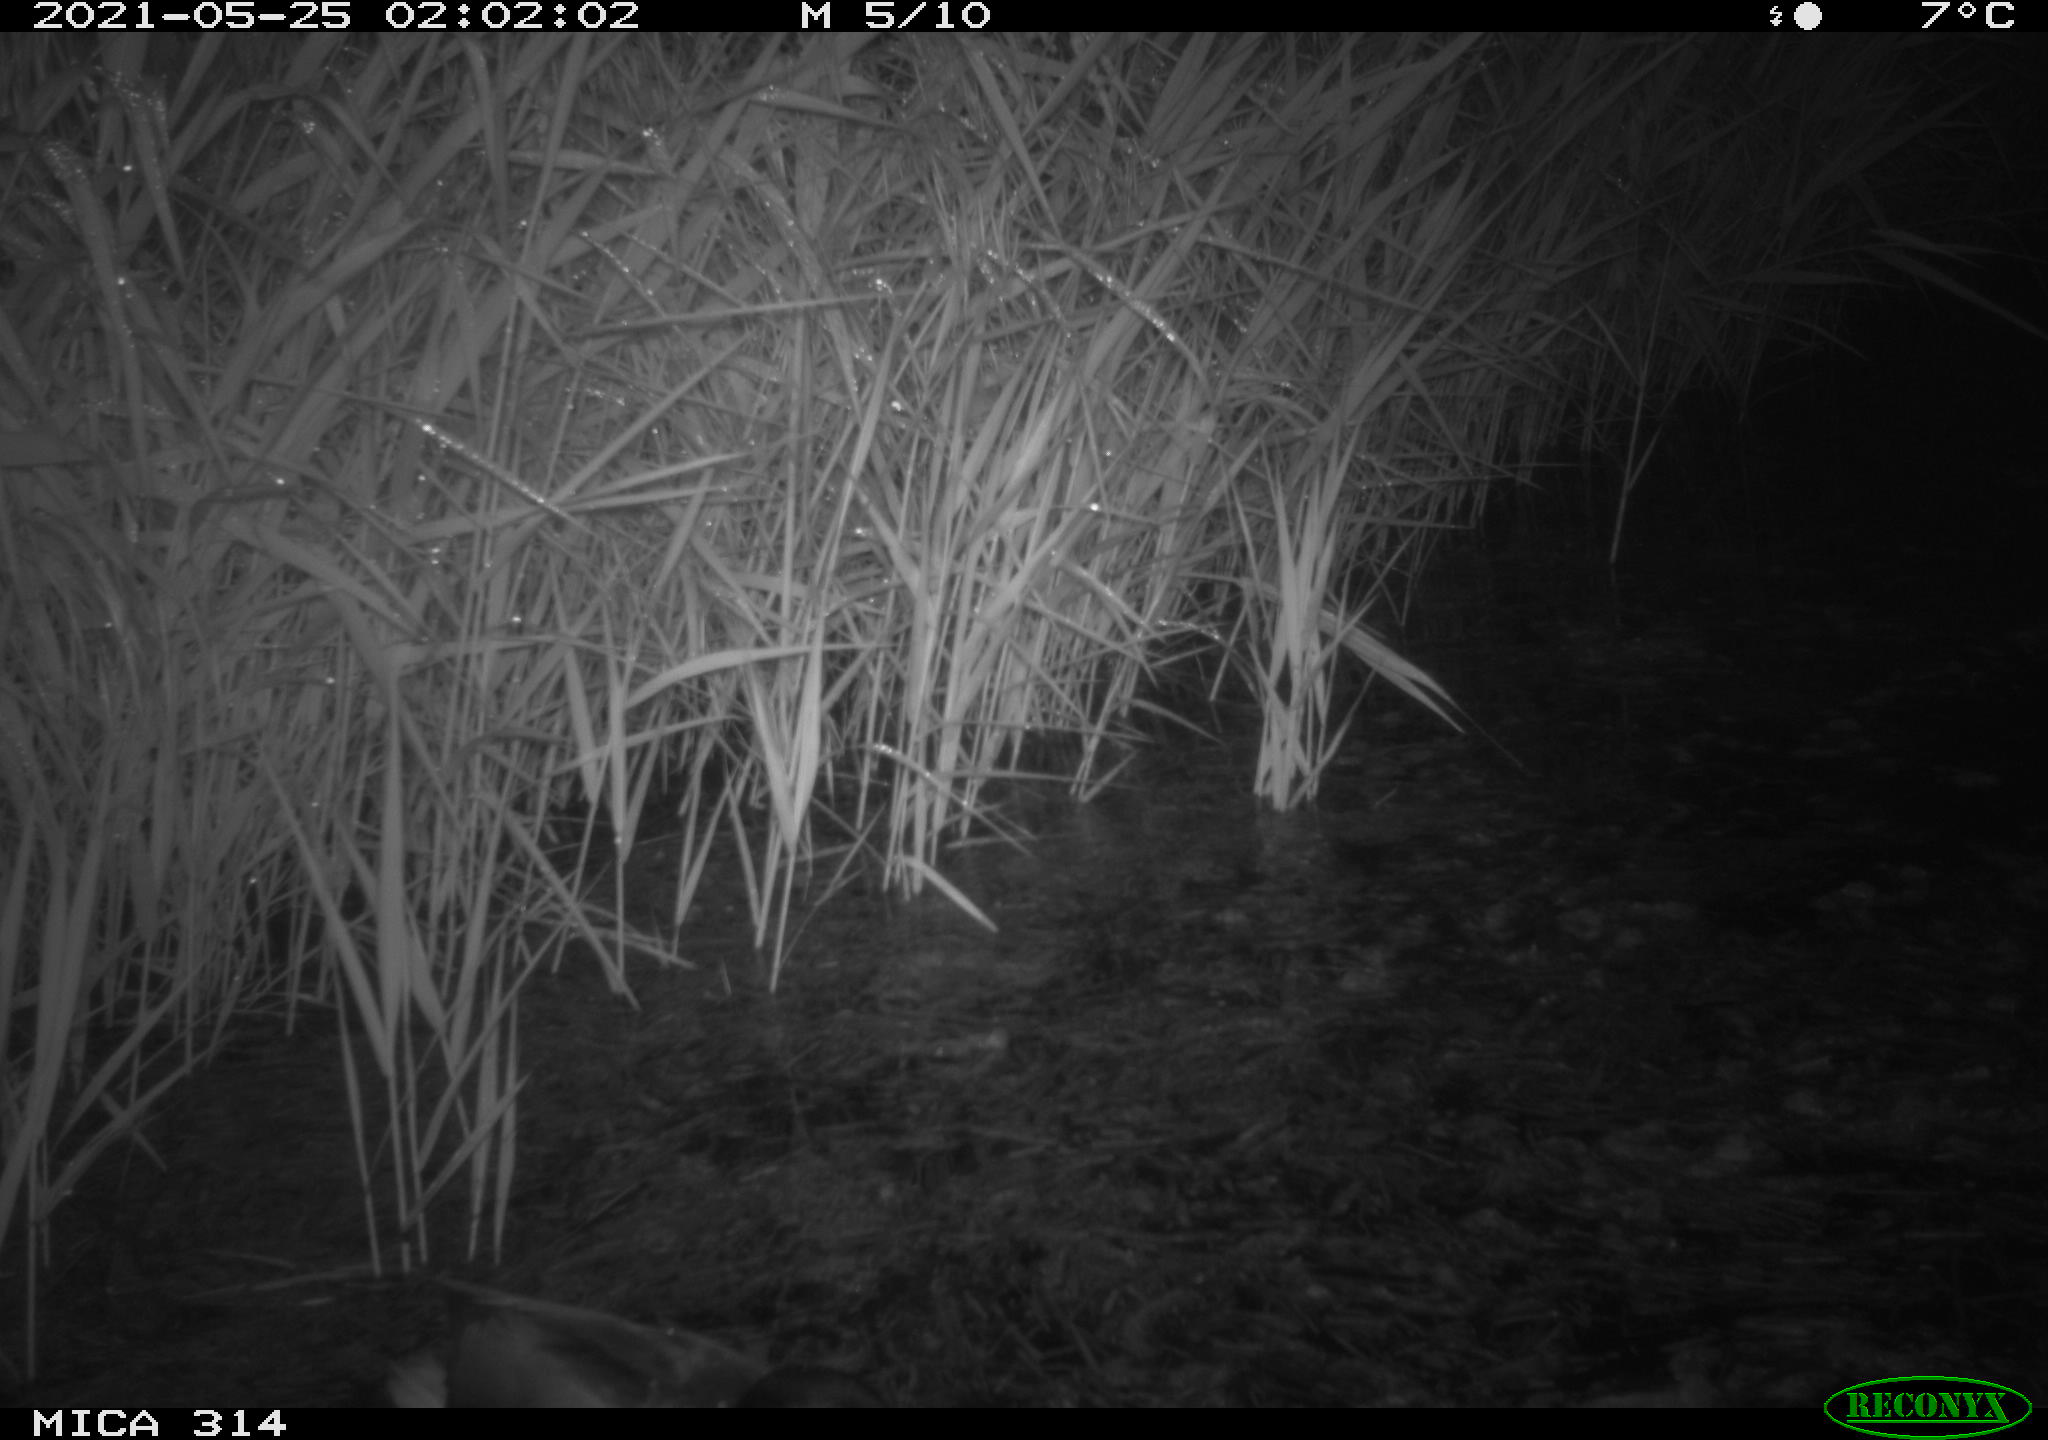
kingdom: Animalia
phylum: Chordata
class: Aves
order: Anseriformes
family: Anatidae
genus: Anas
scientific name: Anas platyrhynchos
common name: Mallard
